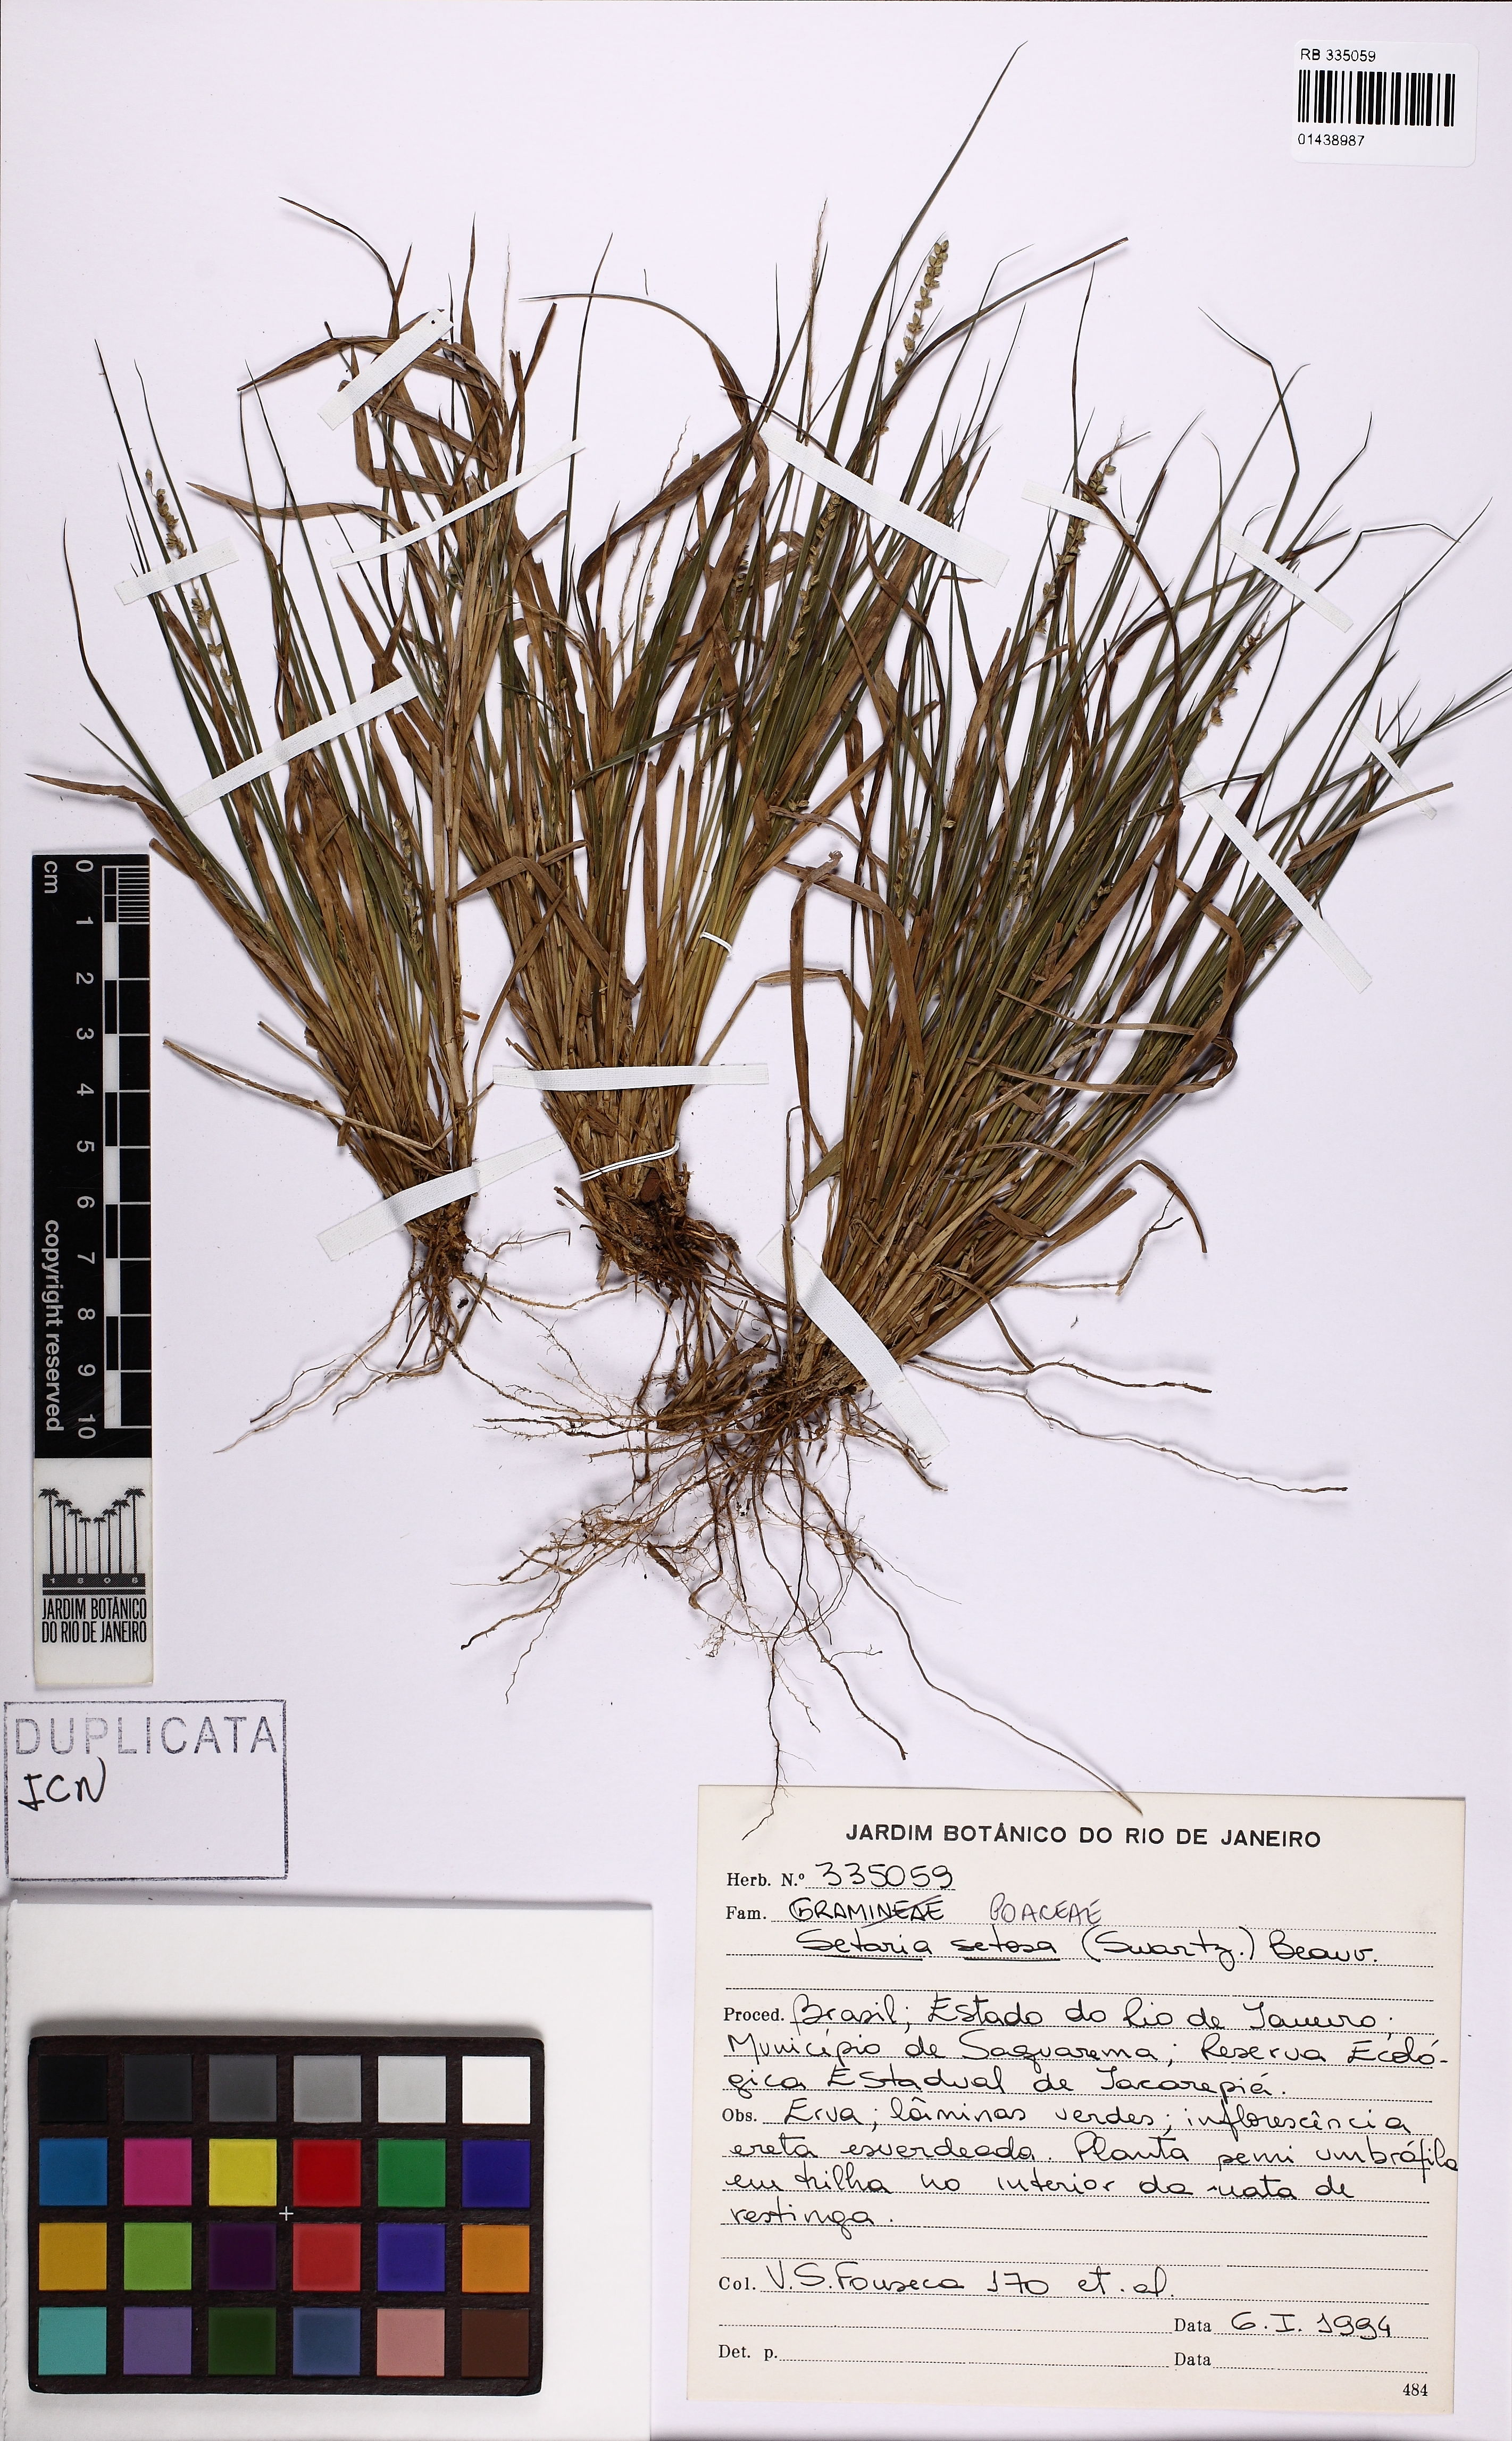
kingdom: Plantae
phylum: Tracheophyta
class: Liliopsida
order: Poales
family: Poaceae
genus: Setaria
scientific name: Setaria setosa
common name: West indies bristle grass
